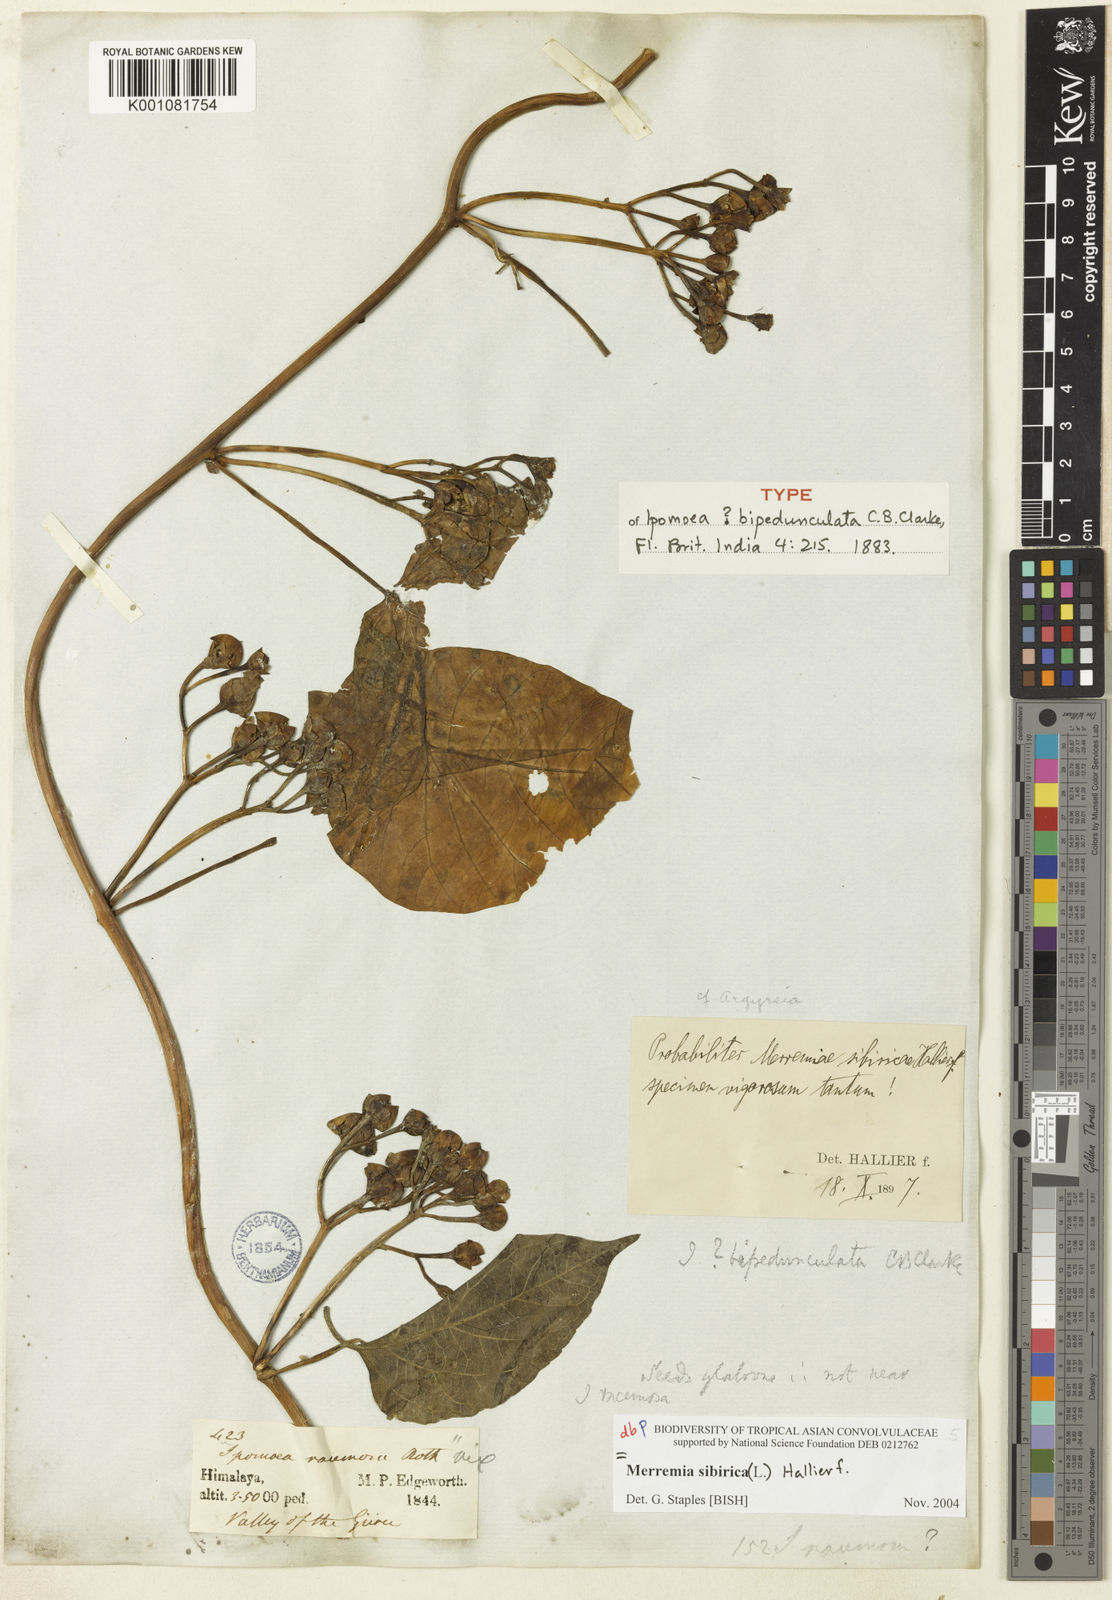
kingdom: Plantae
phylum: Tracheophyta
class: Magnoliopsida
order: Solanales
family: Convolvulaceae
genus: Merremia
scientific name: Merremia sibirica
